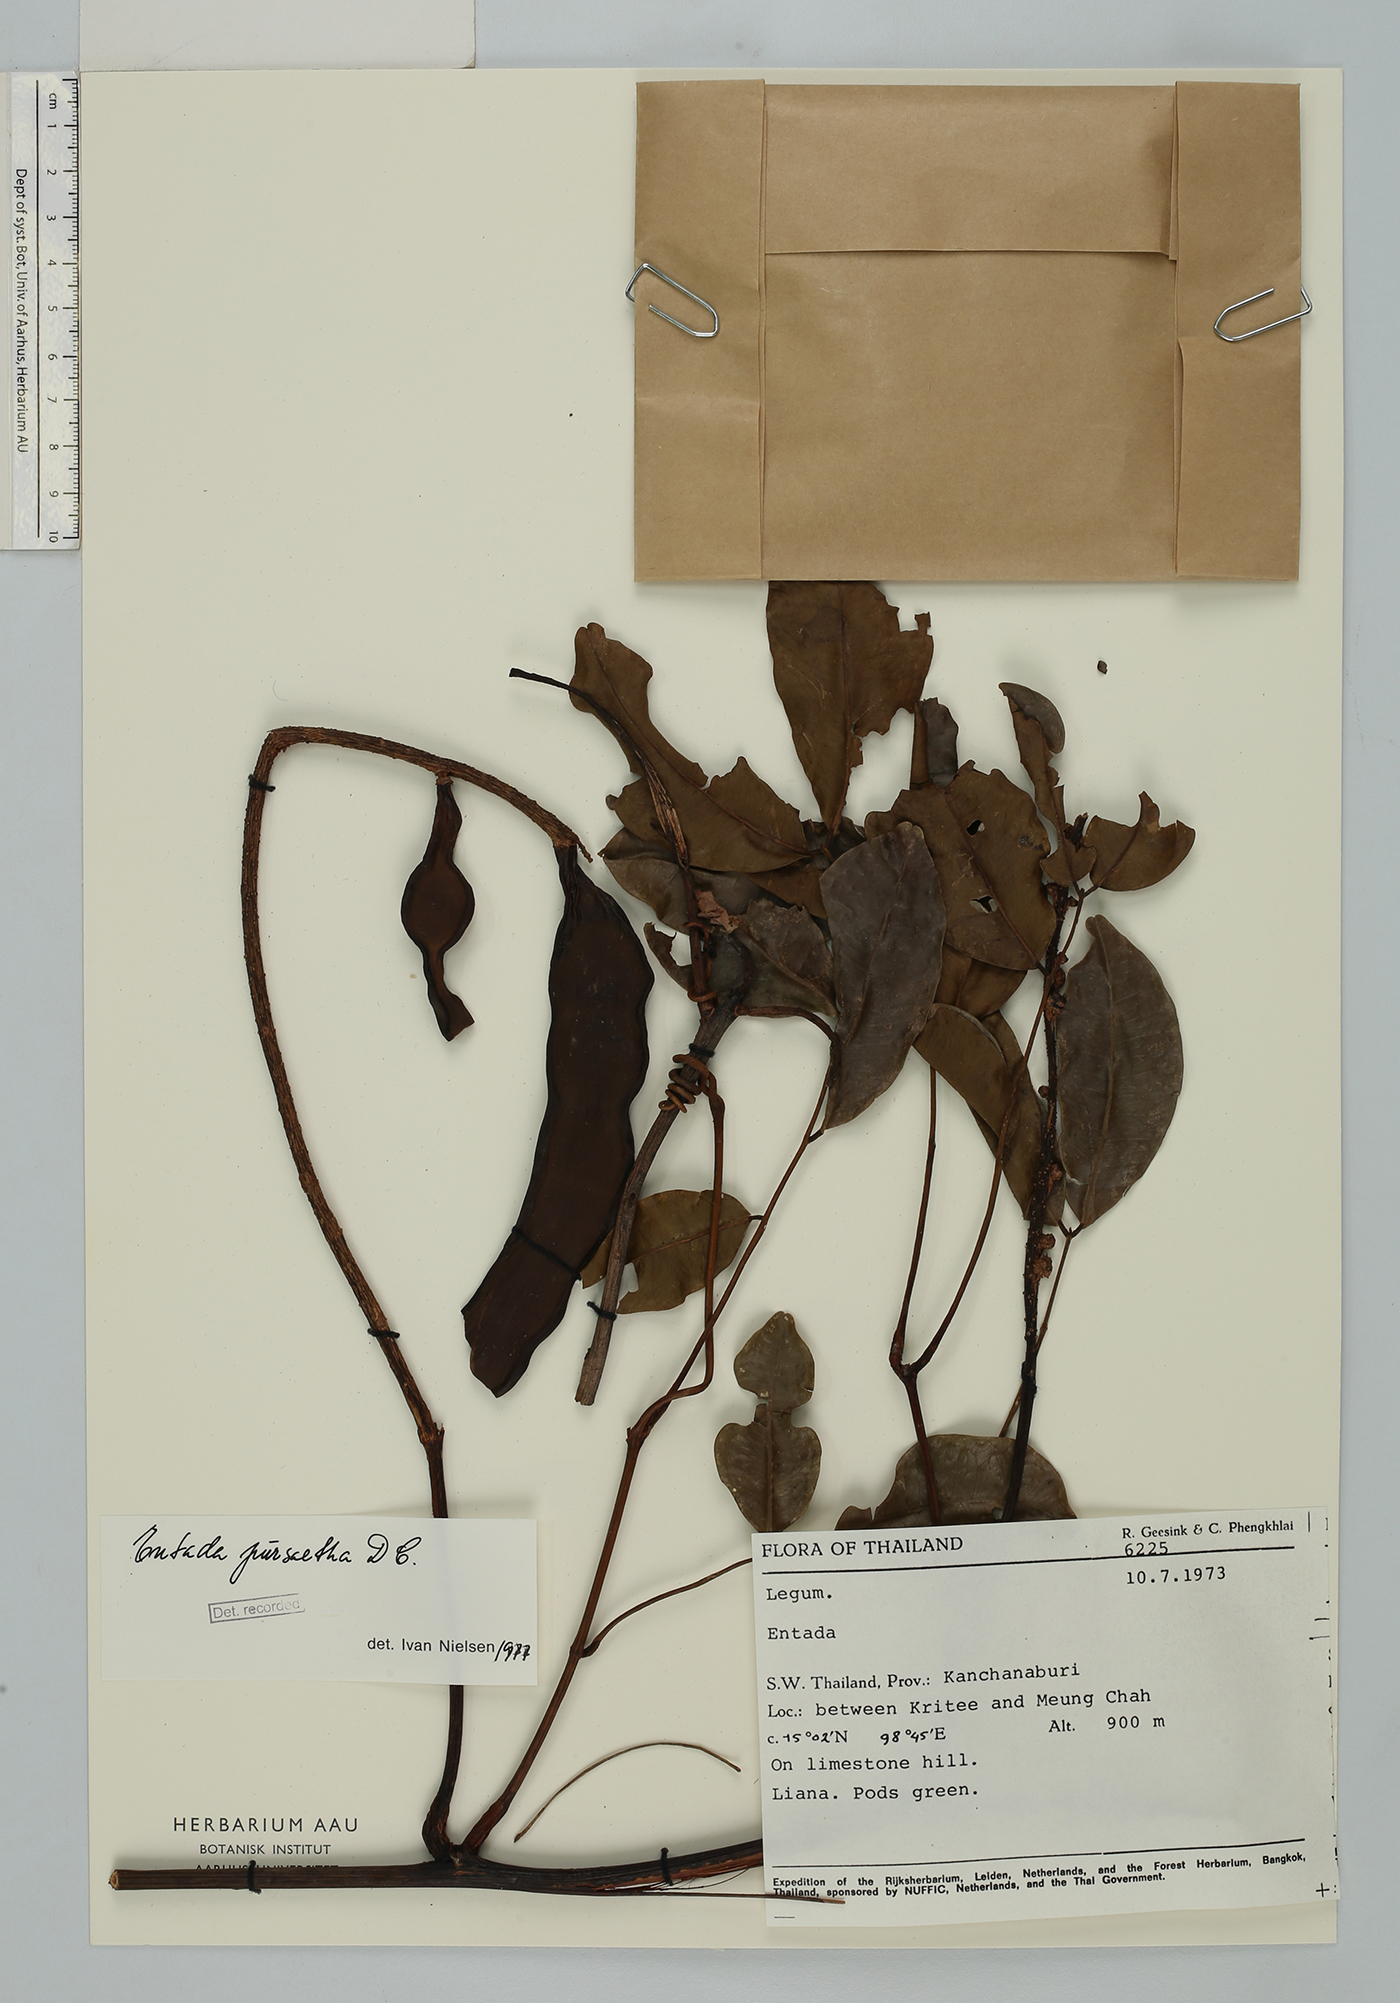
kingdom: Plantae
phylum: Tracheophyta
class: Magnoliopsida
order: Fabales
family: Fabaceae
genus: Entada
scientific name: Entada rheedei
